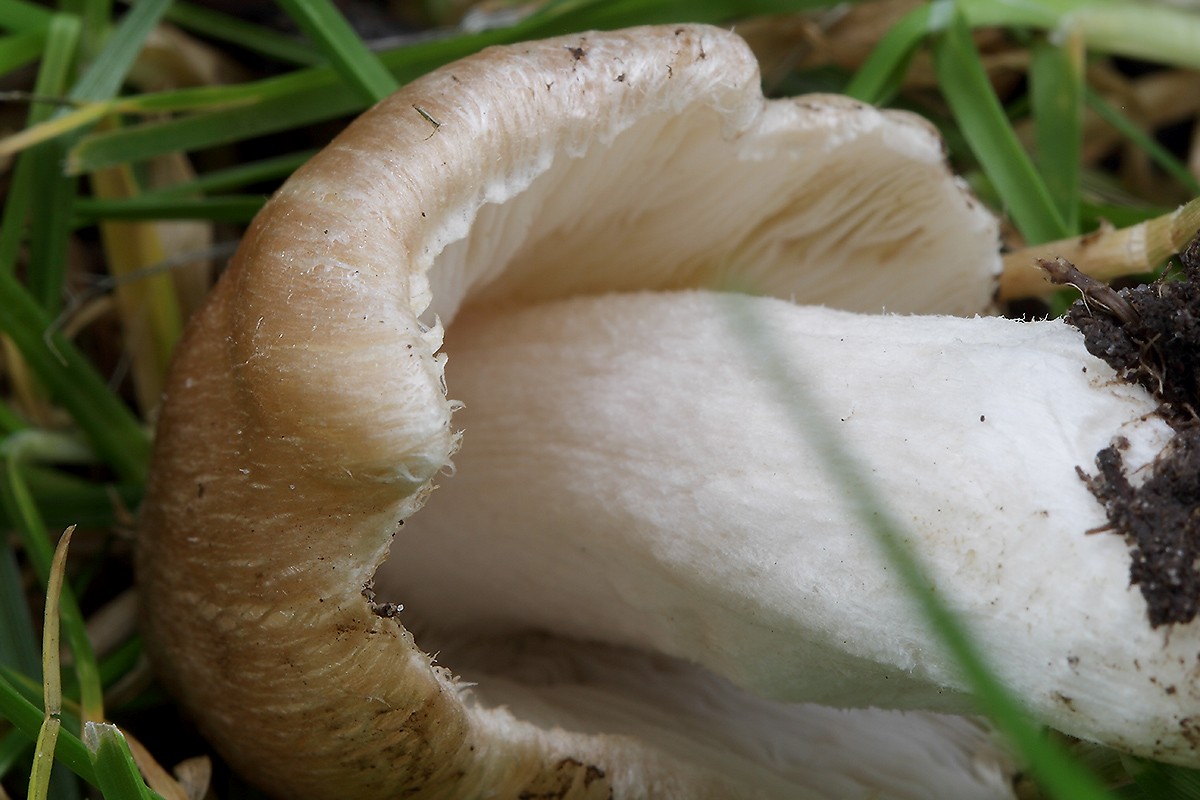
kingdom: Fungi
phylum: Basidiomycota
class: Agaricomycetes
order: Agaricales
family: Inocybaceae
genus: Pseudosperma
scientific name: Pseudosperma obsoletum
